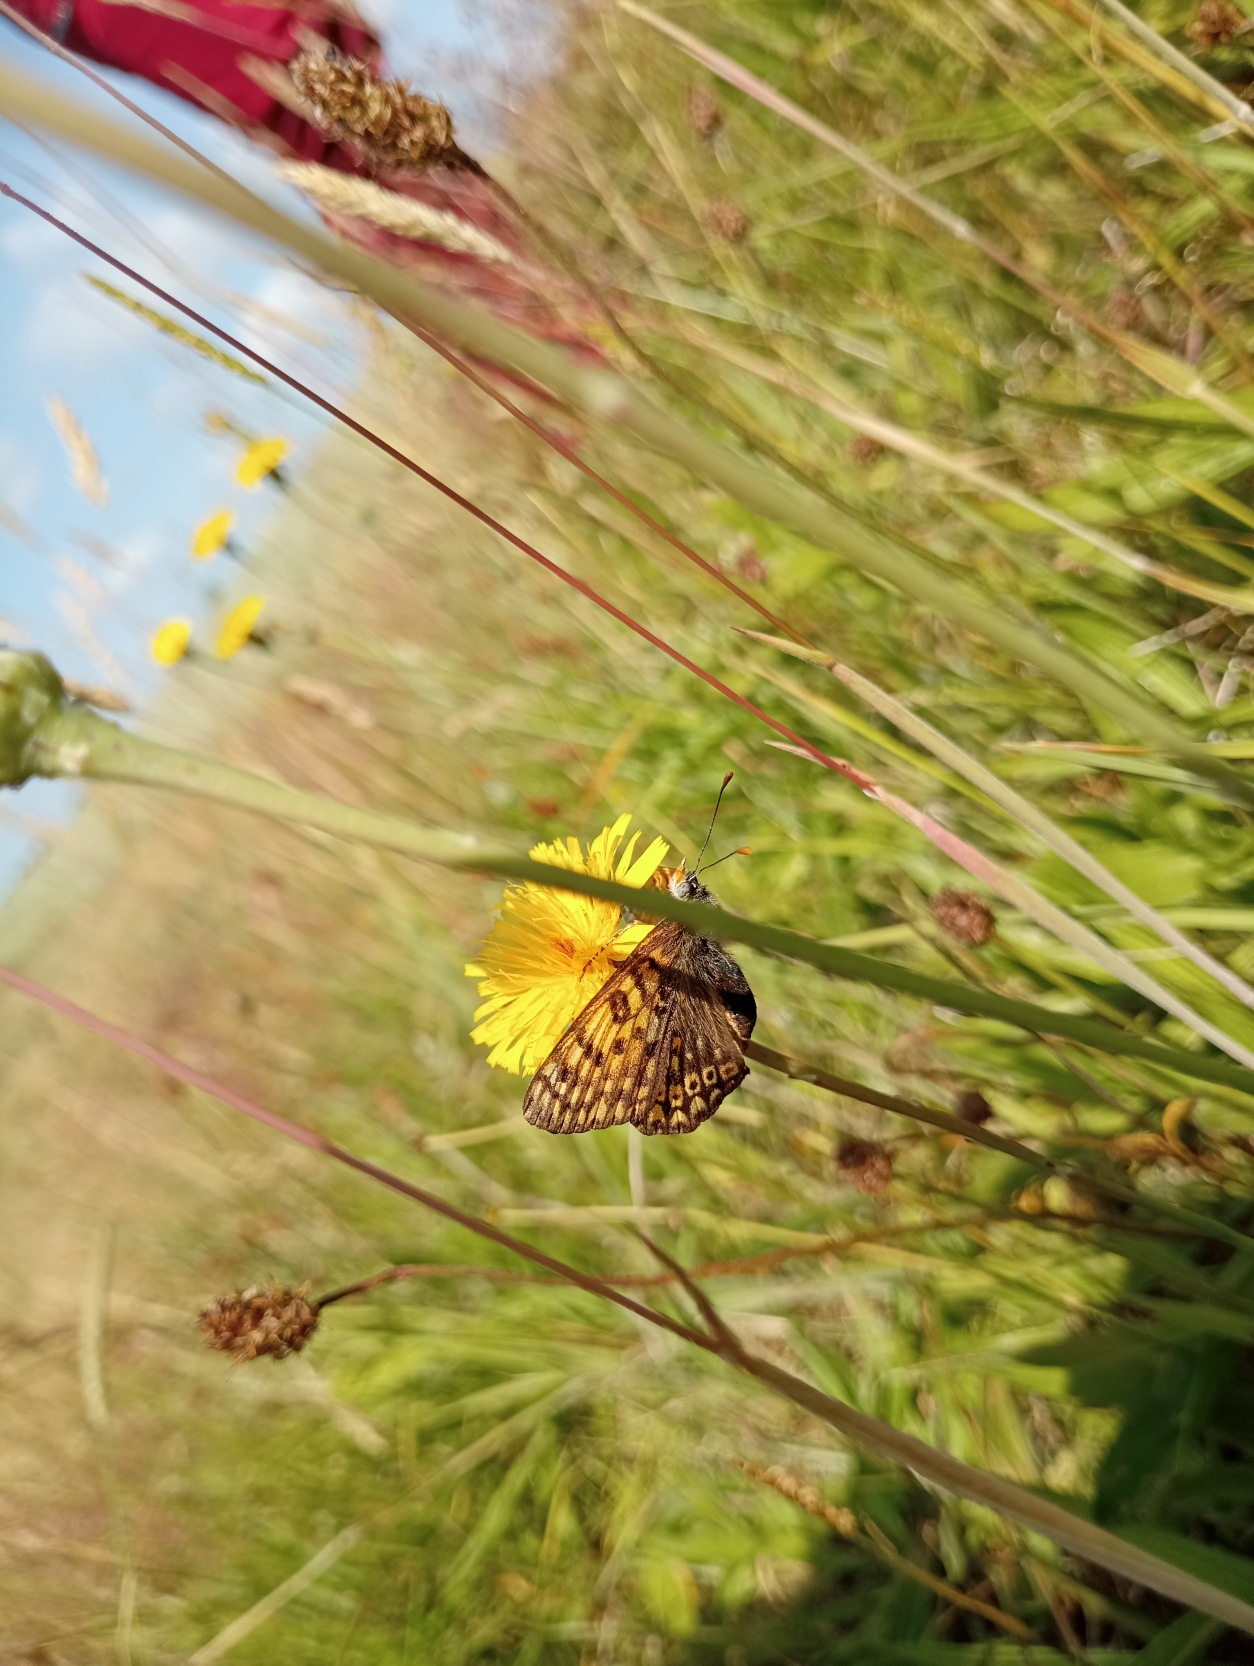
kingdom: Animalia
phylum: Arthropoda
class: Insecta
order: Lepidoptera
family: Nymphalidae
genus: Melitaea
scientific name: Melitaea cinxia
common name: Okkergul pletvinge
